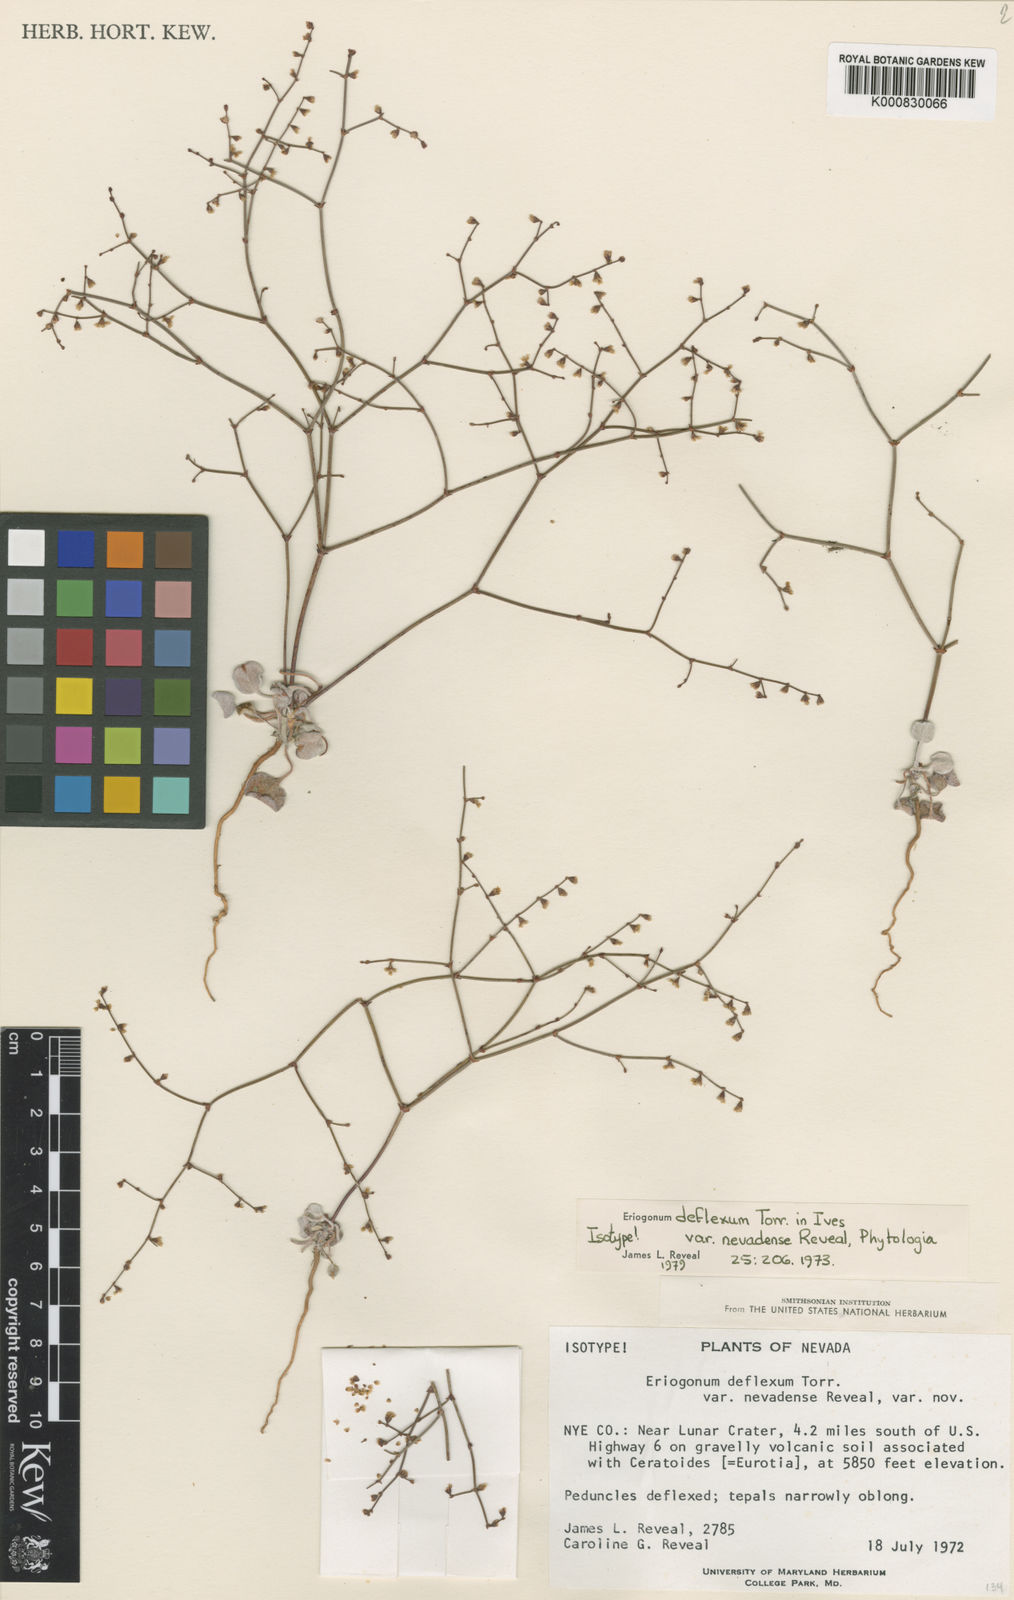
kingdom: Plantae
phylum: Tracheophyta
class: Magnoliopsida
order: Caryophyllales
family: Polygonaceae
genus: Eriogonum
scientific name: Eriogonum deflexum
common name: Skeleton-weed
